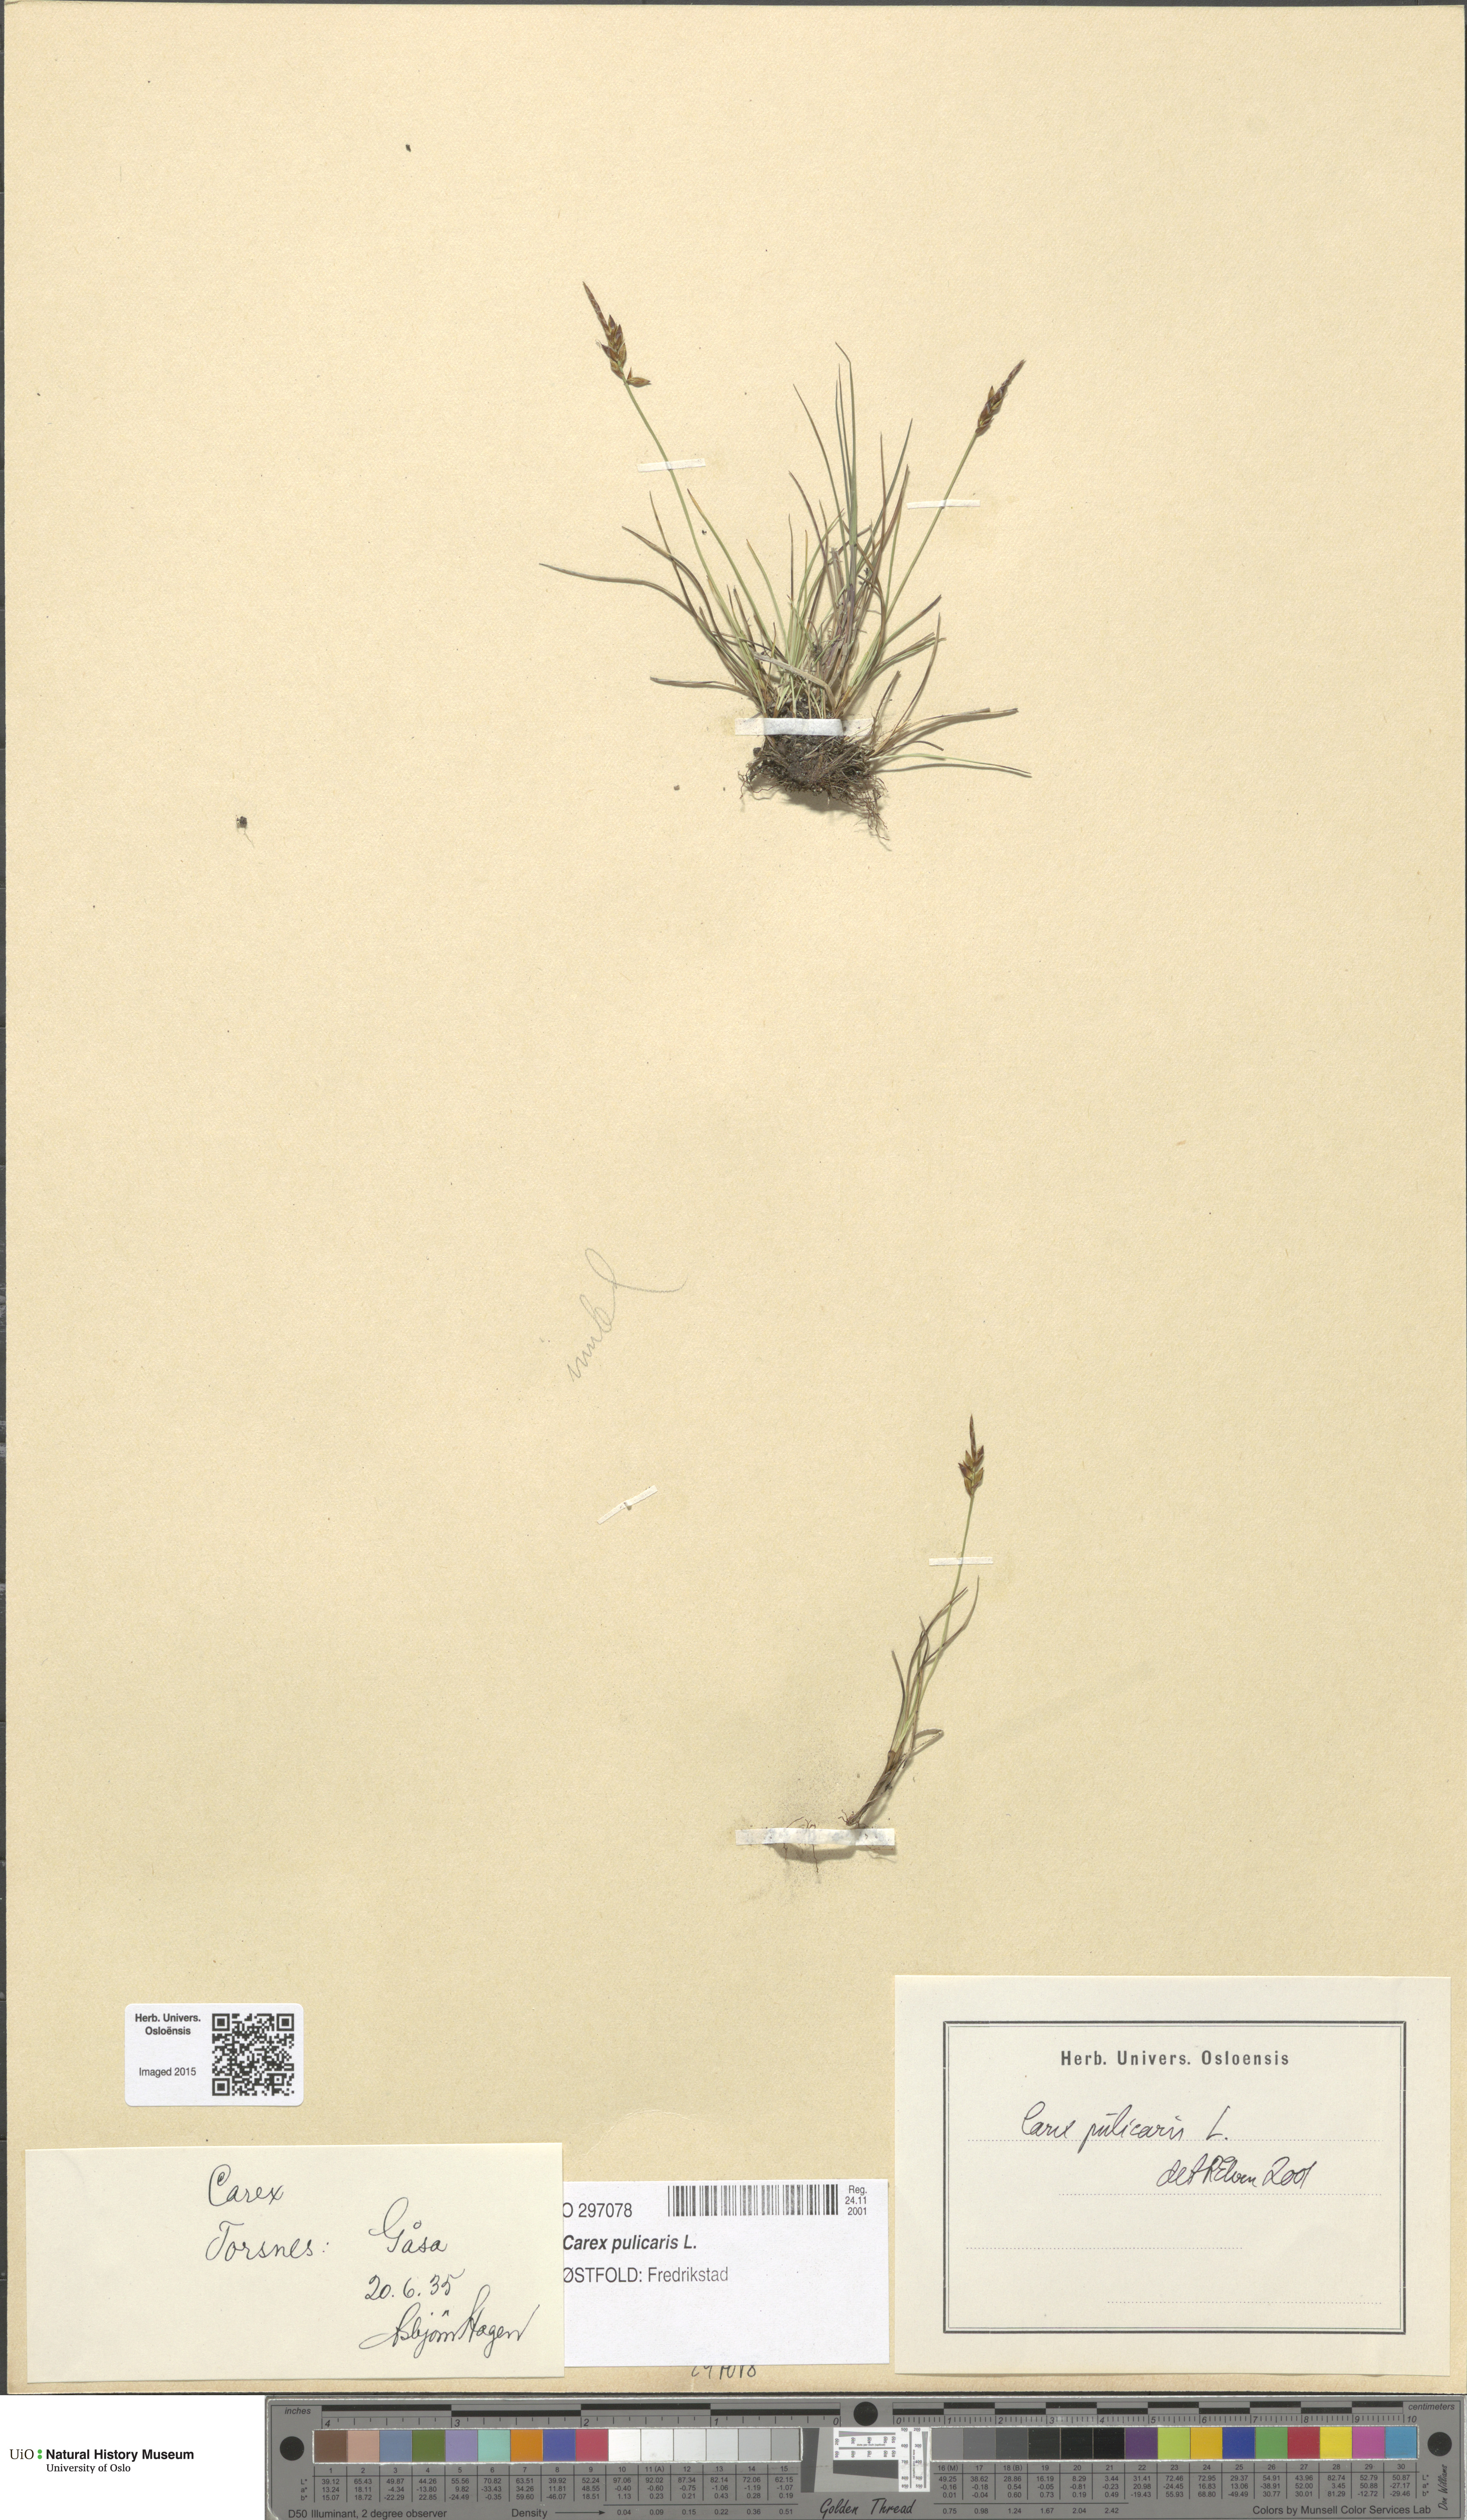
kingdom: Plantae
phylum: Tracheophyta
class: Liliopsida
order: Poales
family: Cyperaceae
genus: Carex
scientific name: Carex pulicaris
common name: Flea sedge
